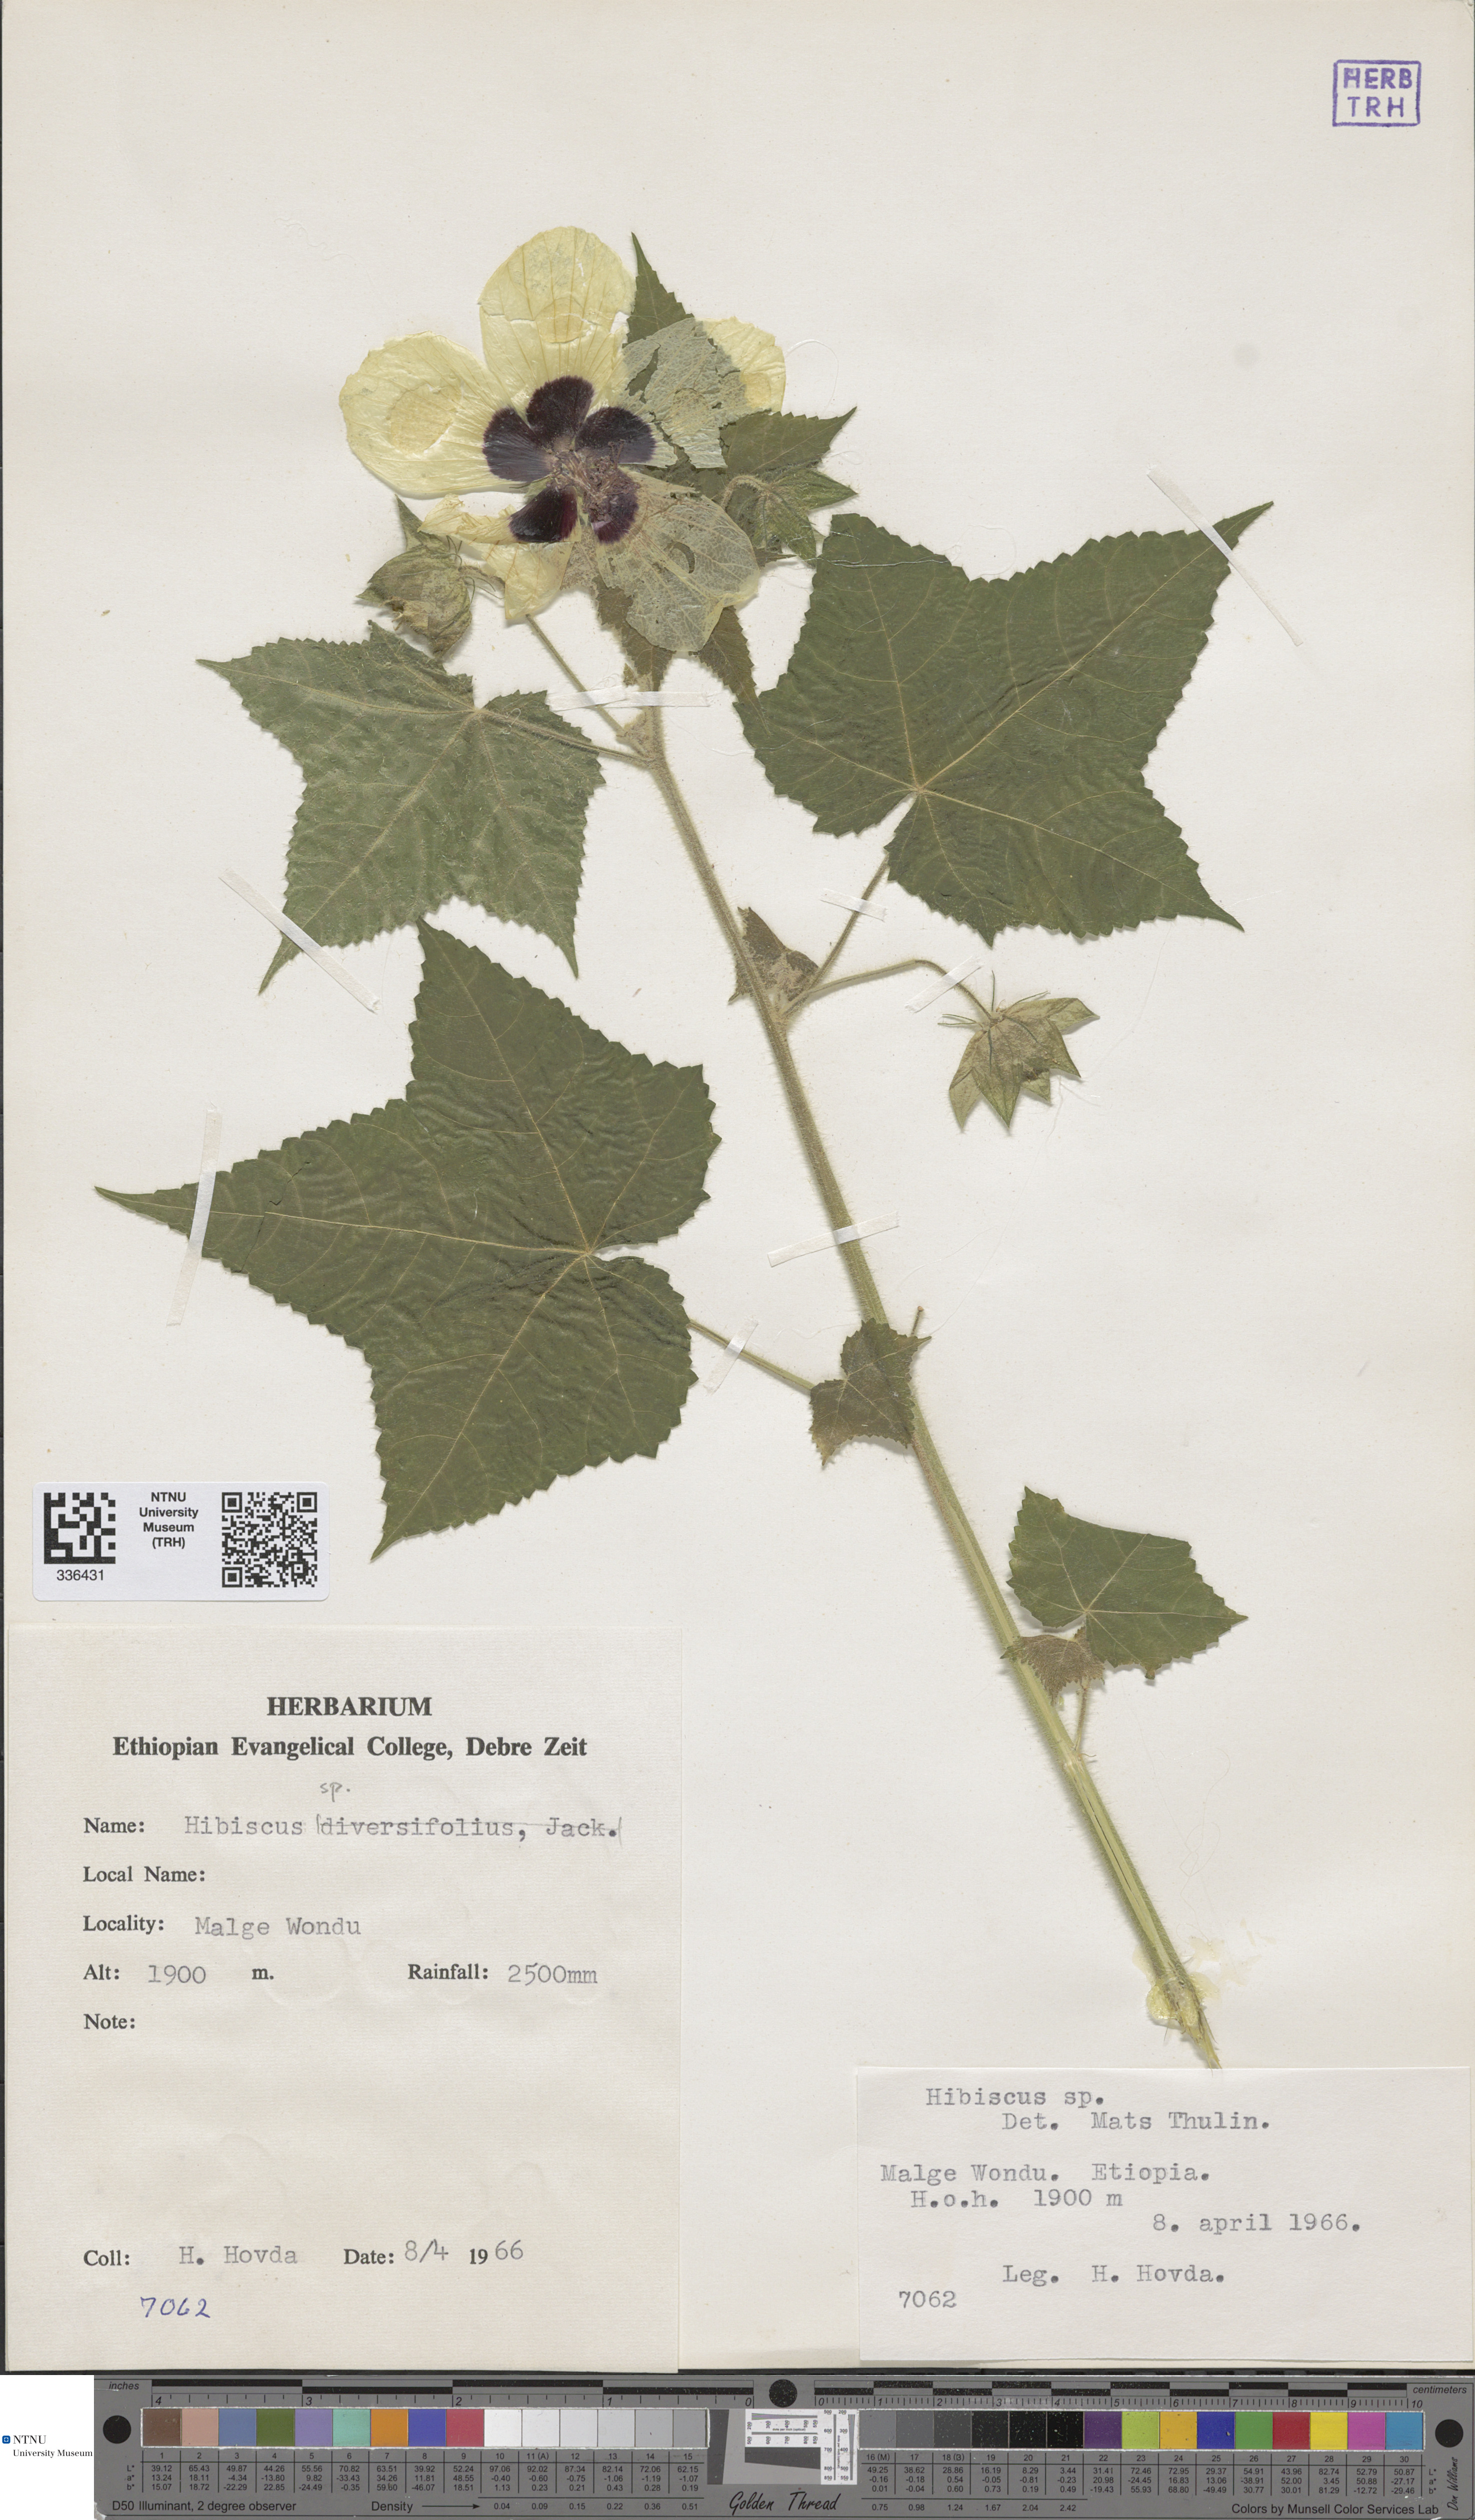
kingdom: Plantae
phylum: Tracheophyta
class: Magnoliopsida
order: Malvales
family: Malvaceae
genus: Hibiscus
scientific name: Hibiscus
